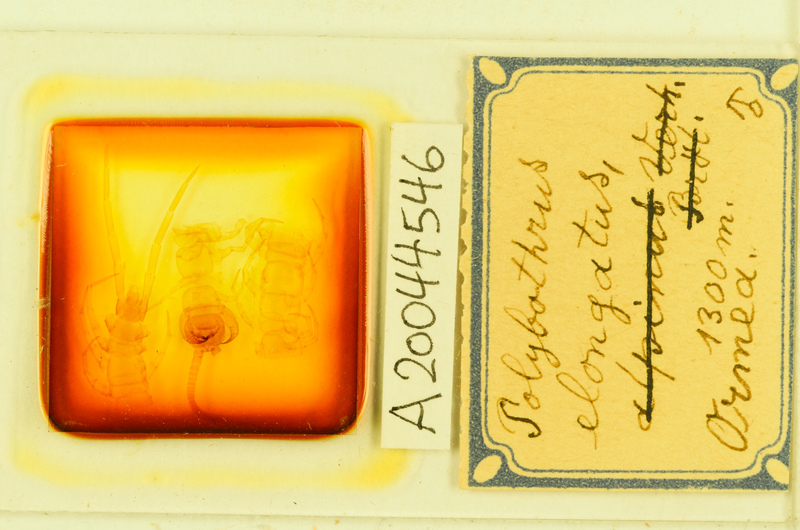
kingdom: Animalia
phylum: Arthropoda
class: Chilopoda
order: Lithobiomorpha
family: Lithobiidae
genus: Polybothrus
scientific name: Polybothrus
